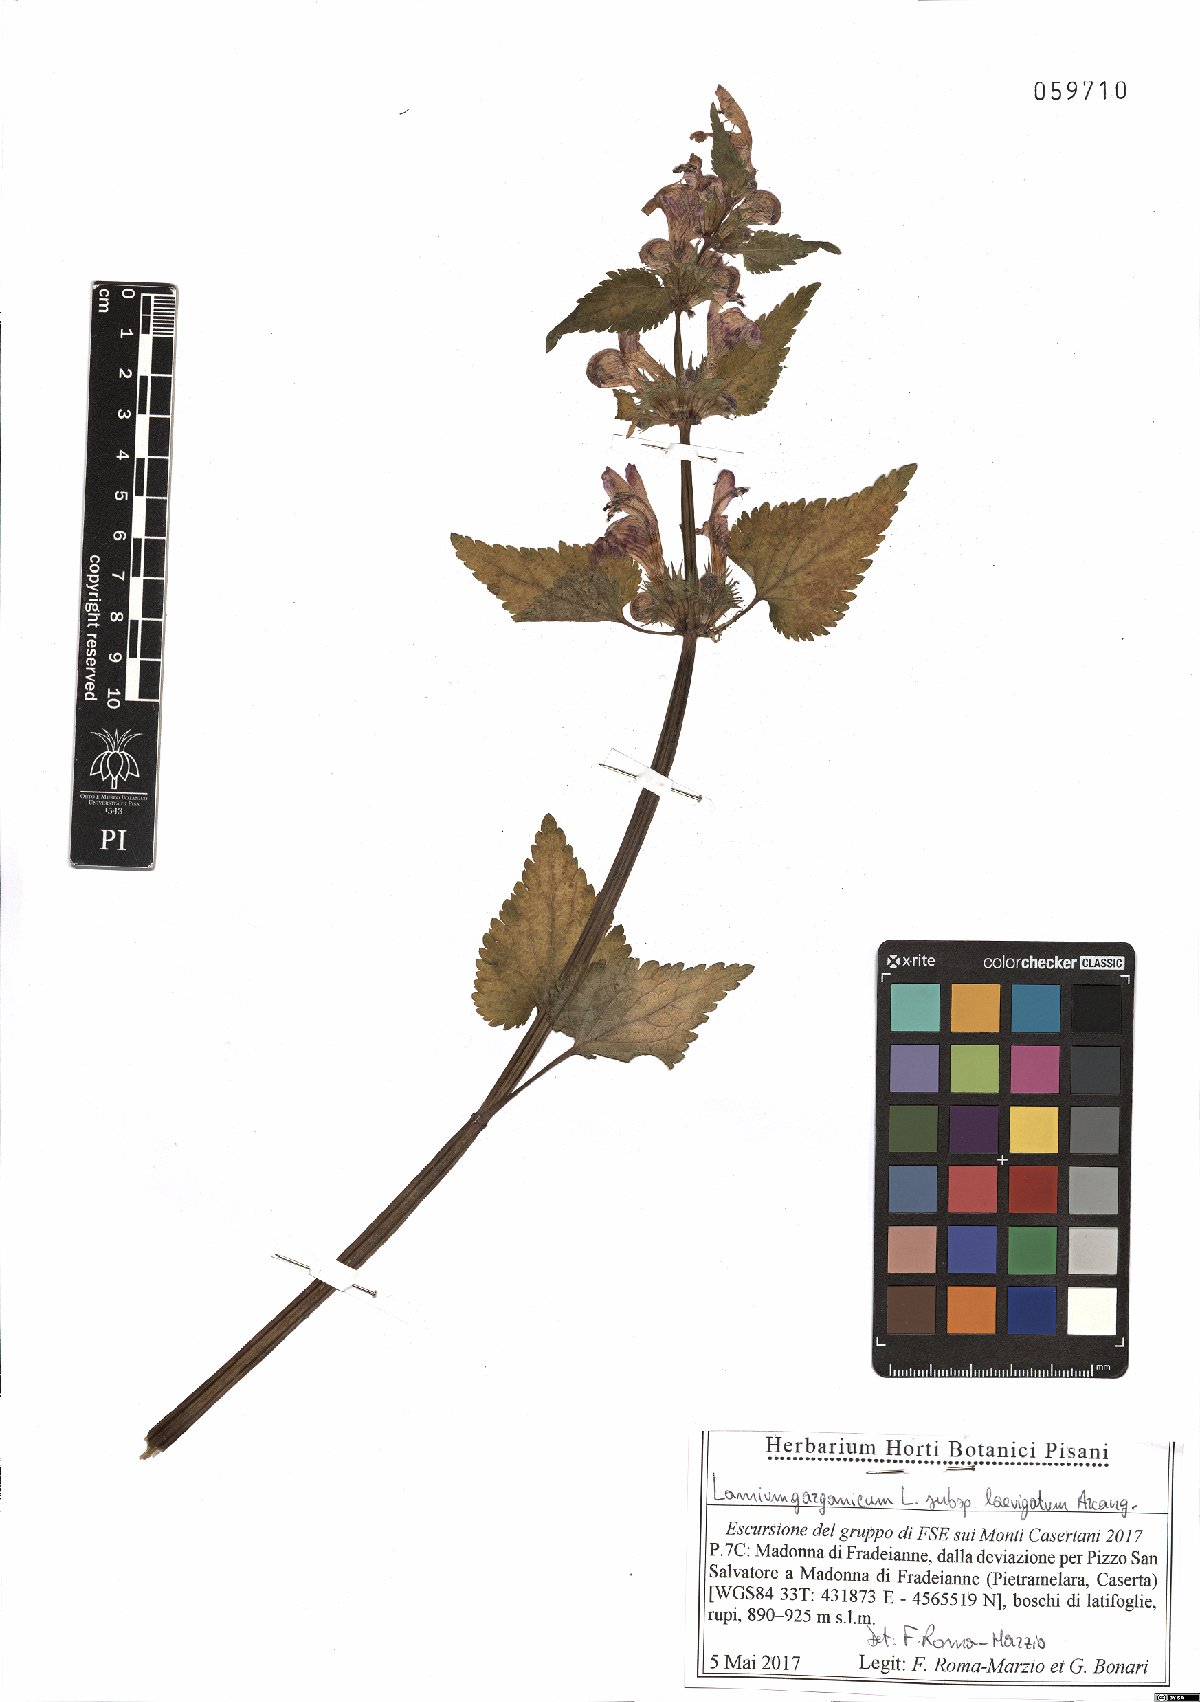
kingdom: Plantae
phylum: Tracheophyta
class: Magnoliopsida
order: Lamiales
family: Lamiaceae
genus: Lamium
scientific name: Lamium garganicum
